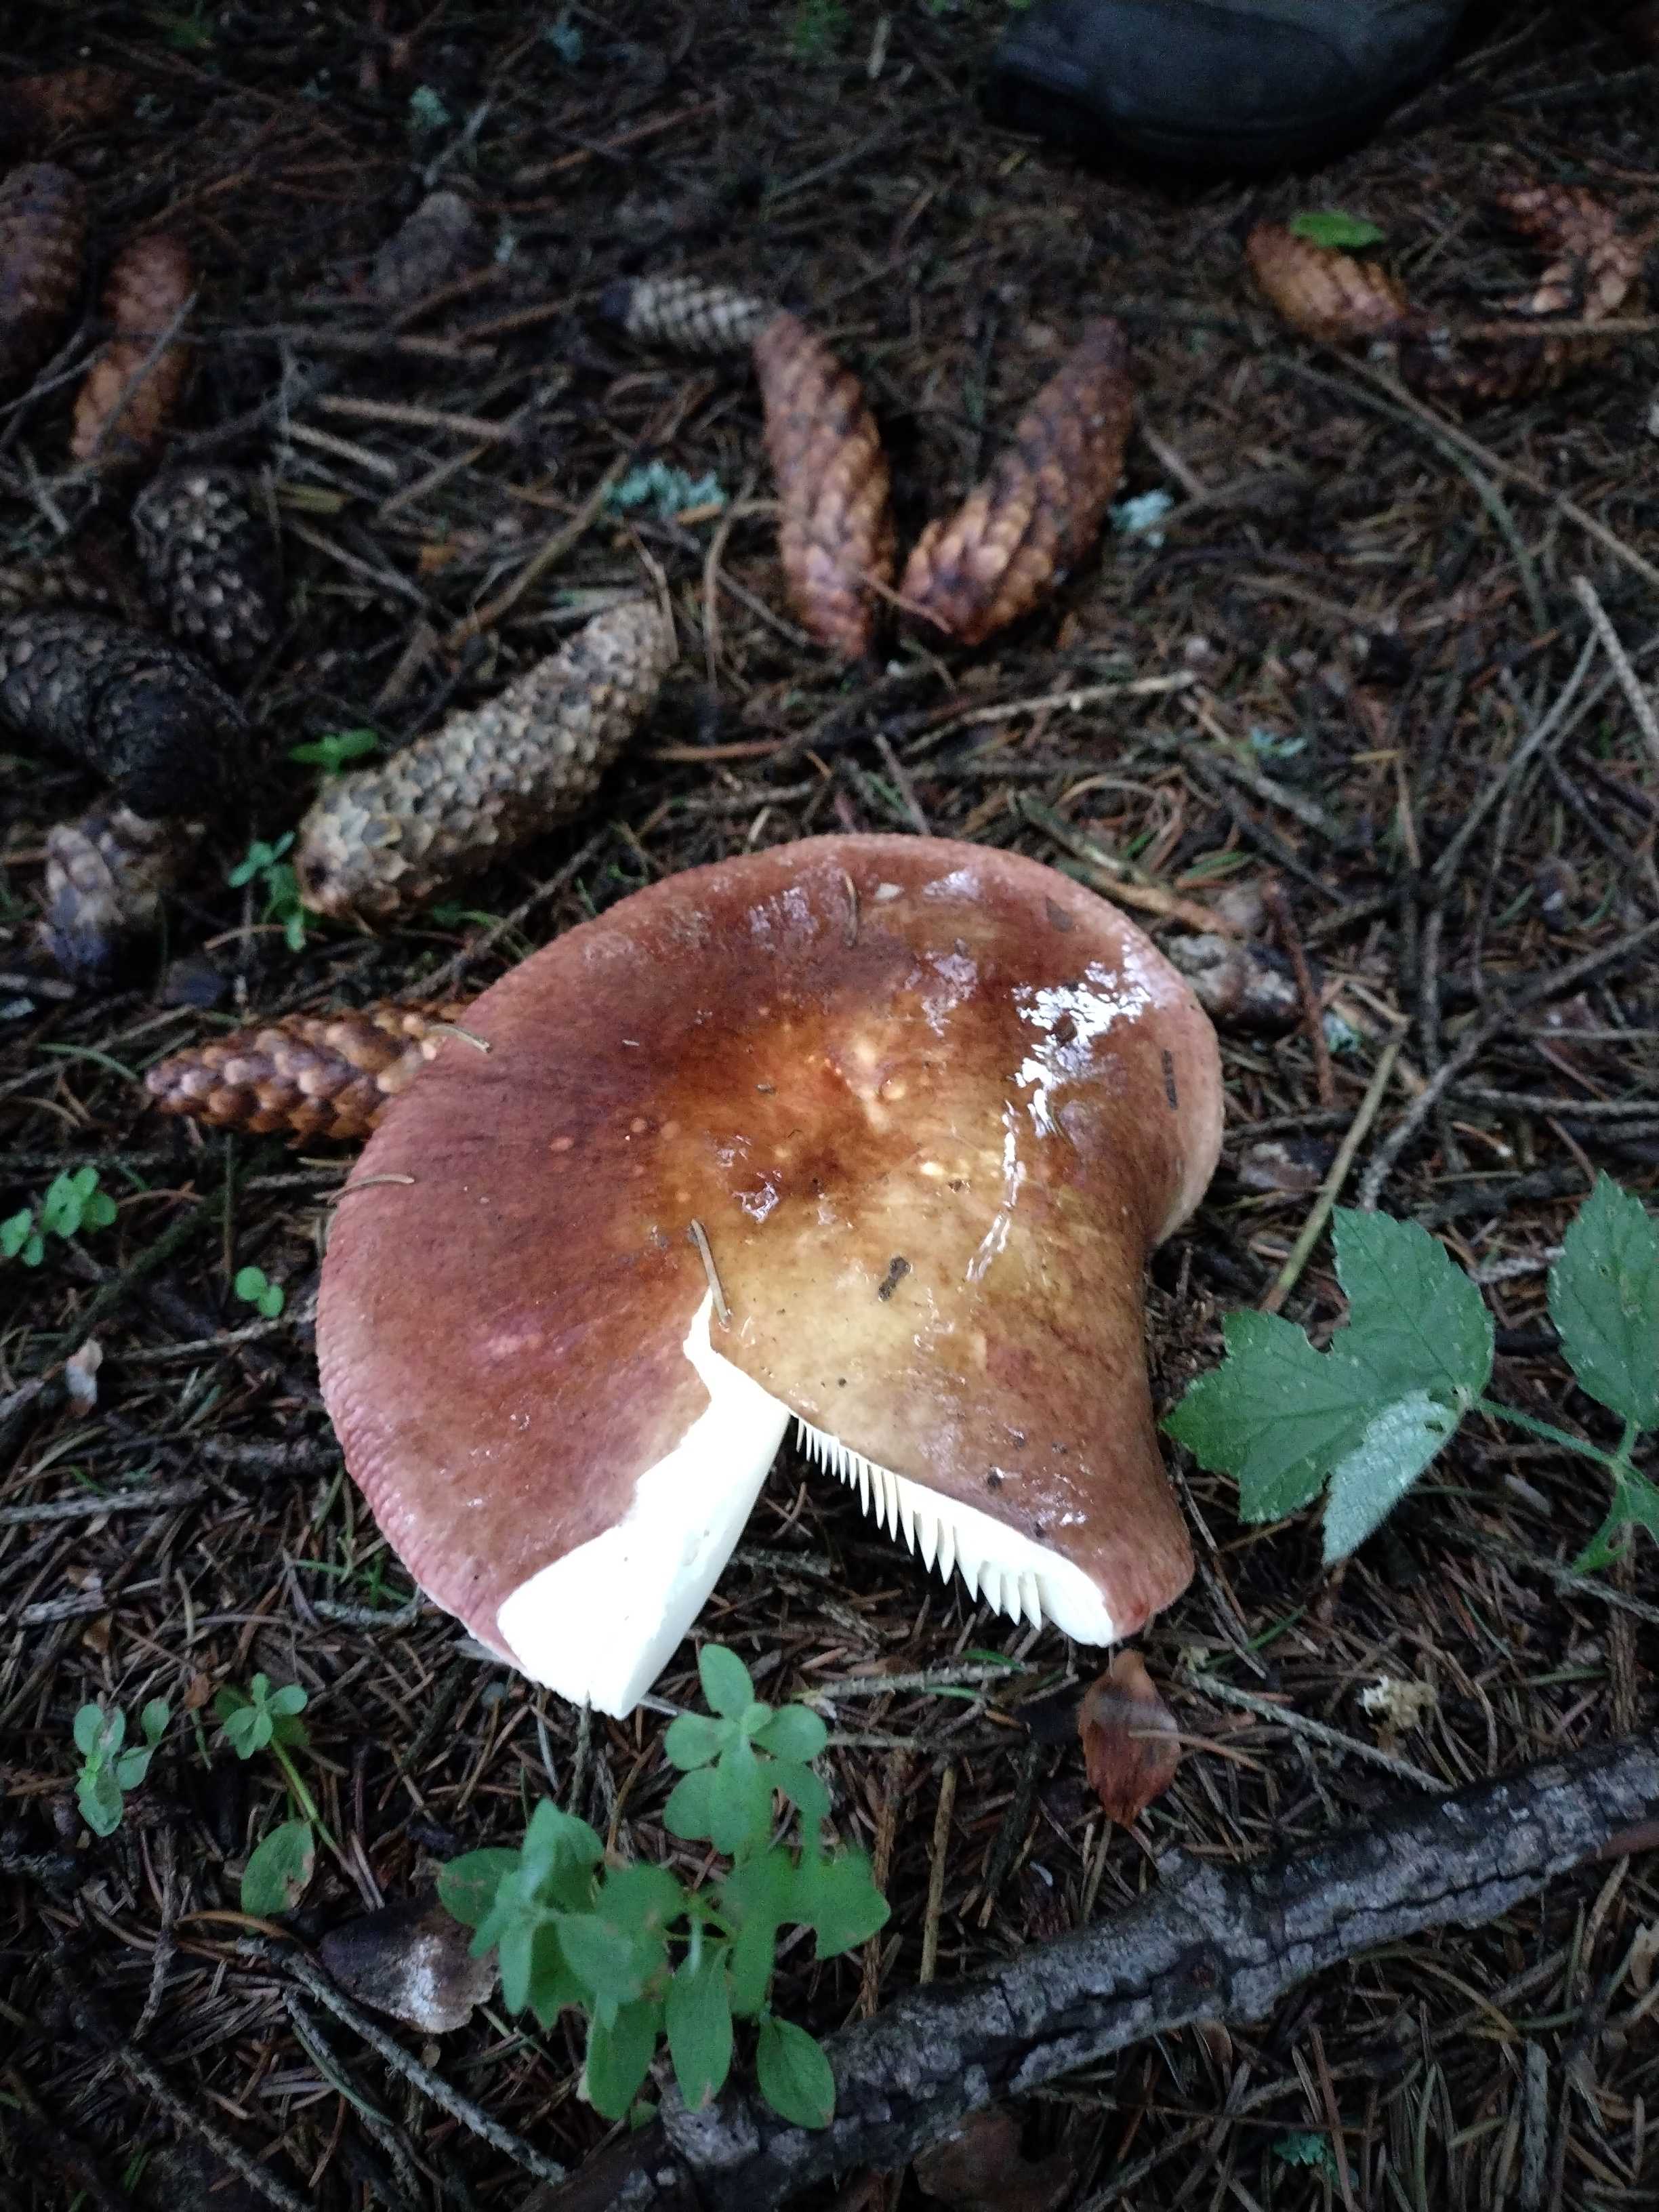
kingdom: Fungi
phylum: Basidiomycota
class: Agaricomycetes
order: Russulales
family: Russulaceae
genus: Russula
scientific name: Russula integra
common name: mandel-skørhat
